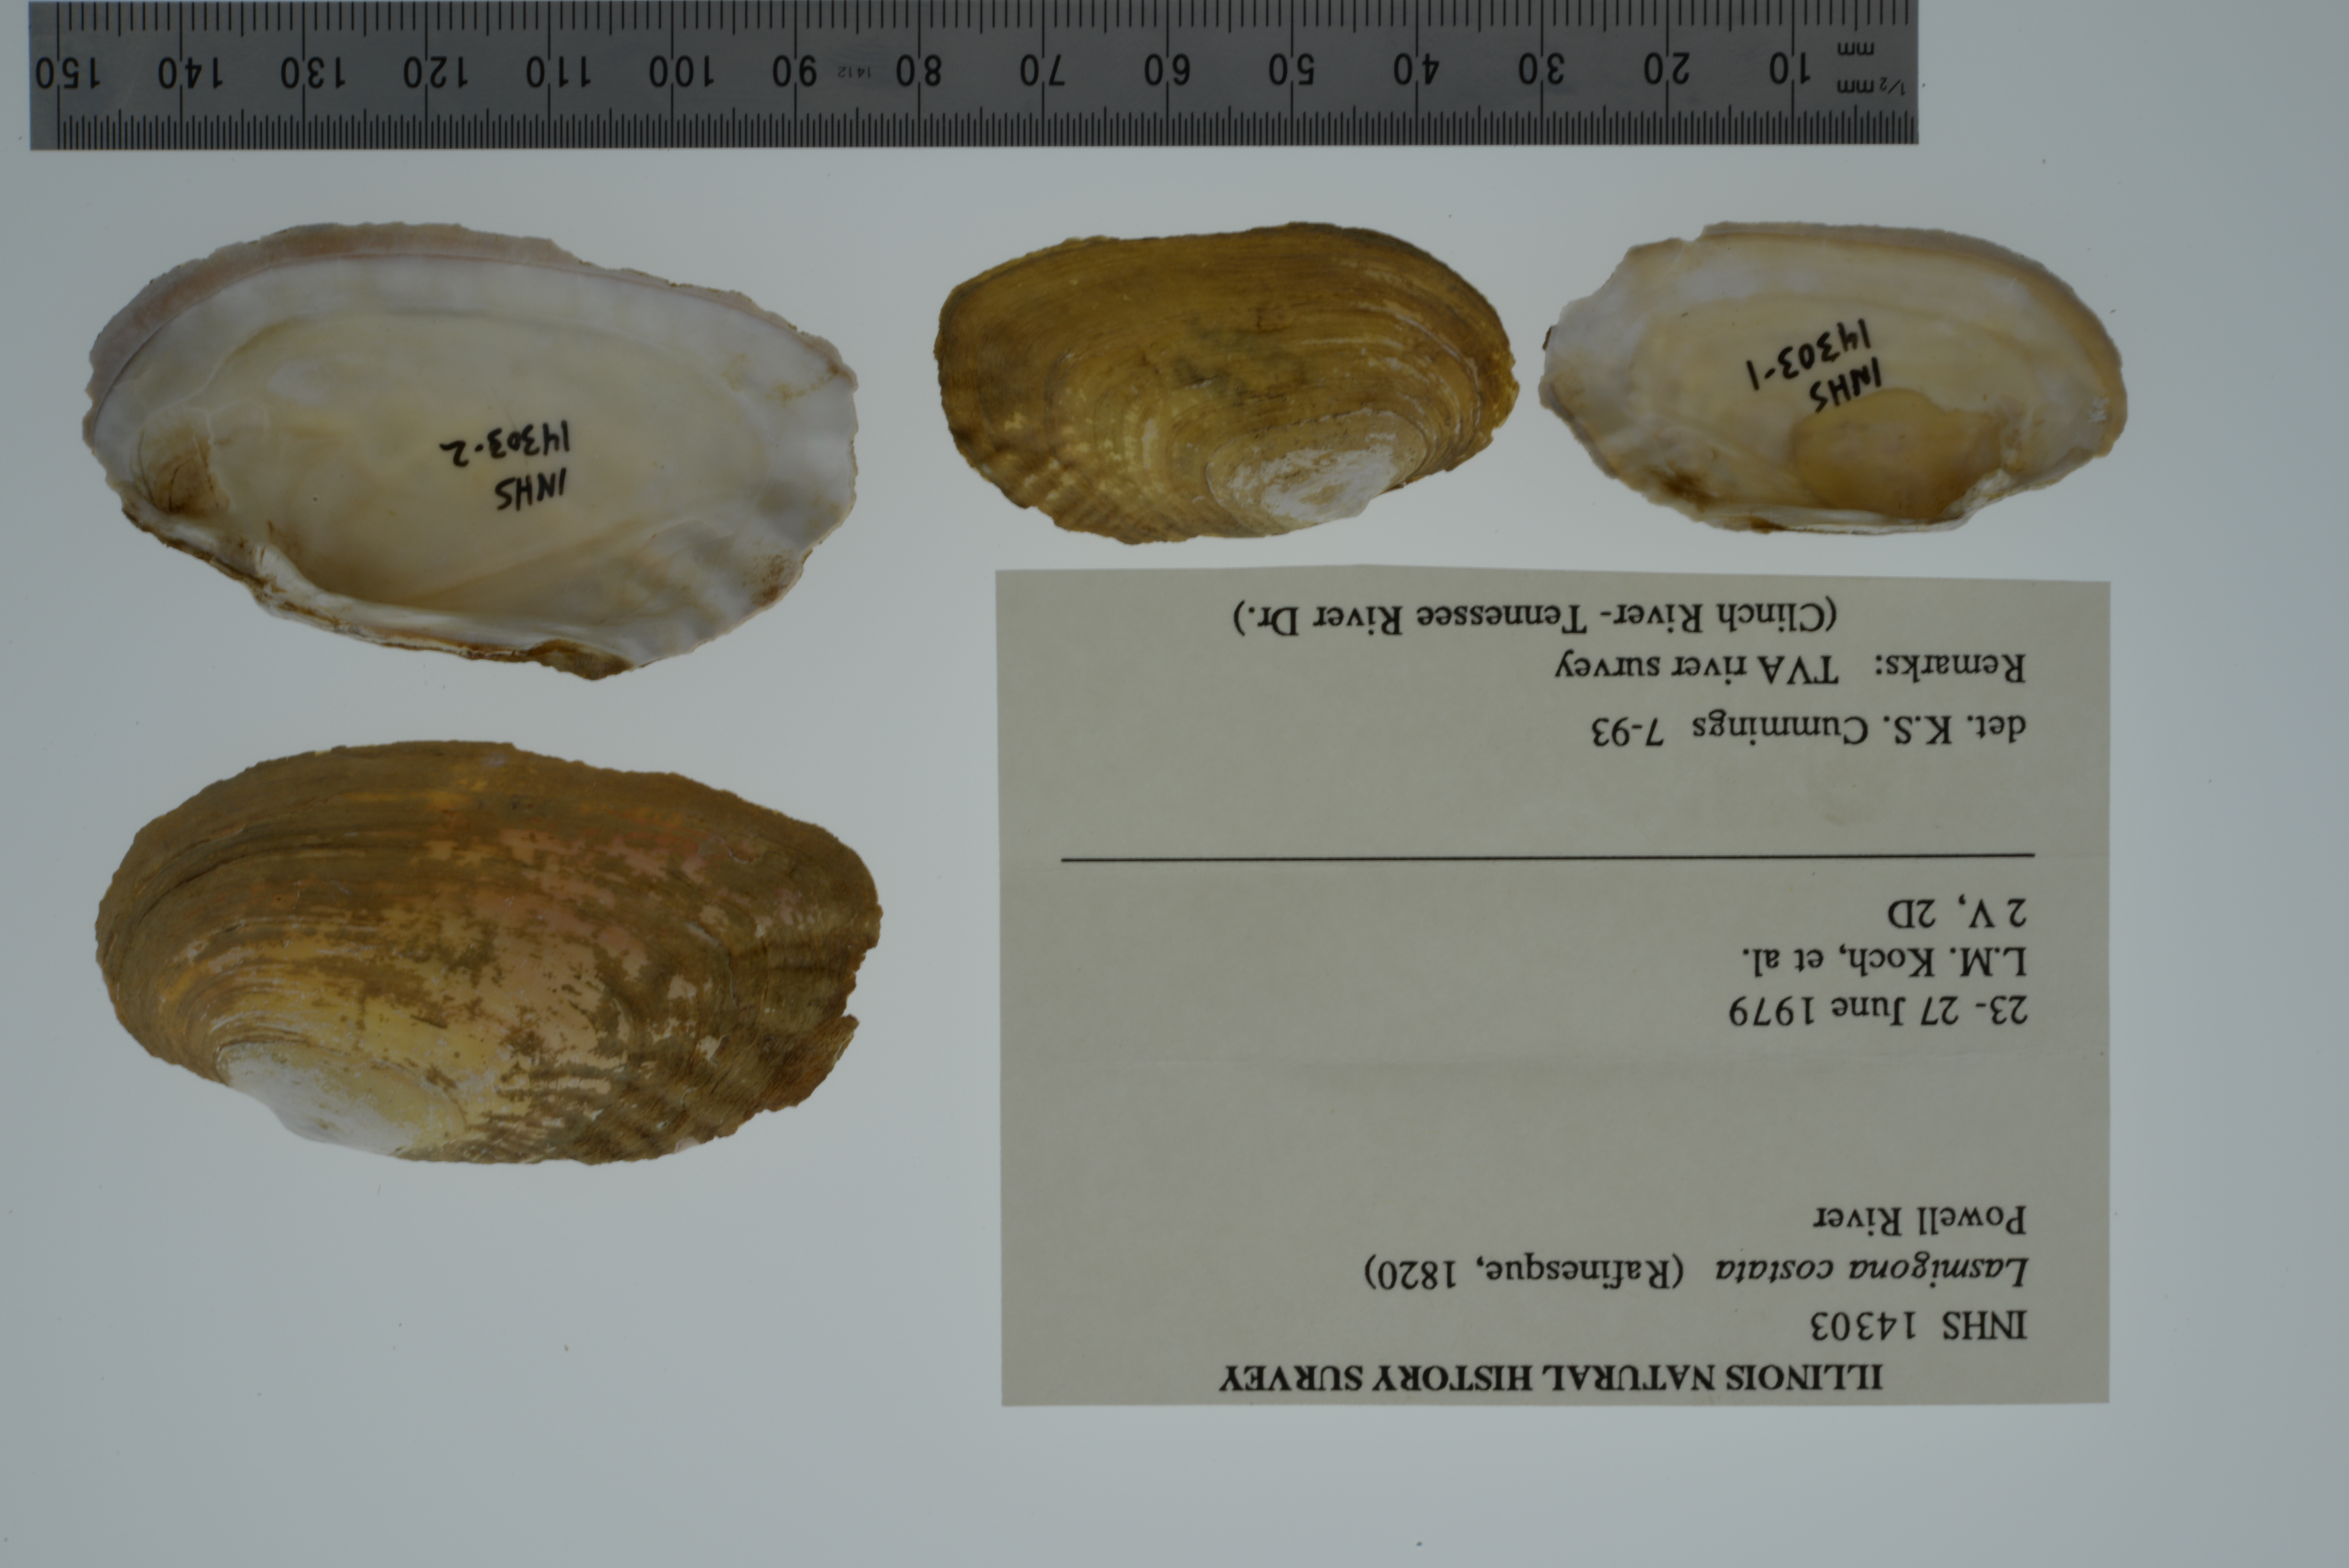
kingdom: Animalia
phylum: Mollusca
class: Bivalvia
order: Unionida
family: Unionidae
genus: Lasmigona
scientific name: Lasmigona costata
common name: Flutedshell
